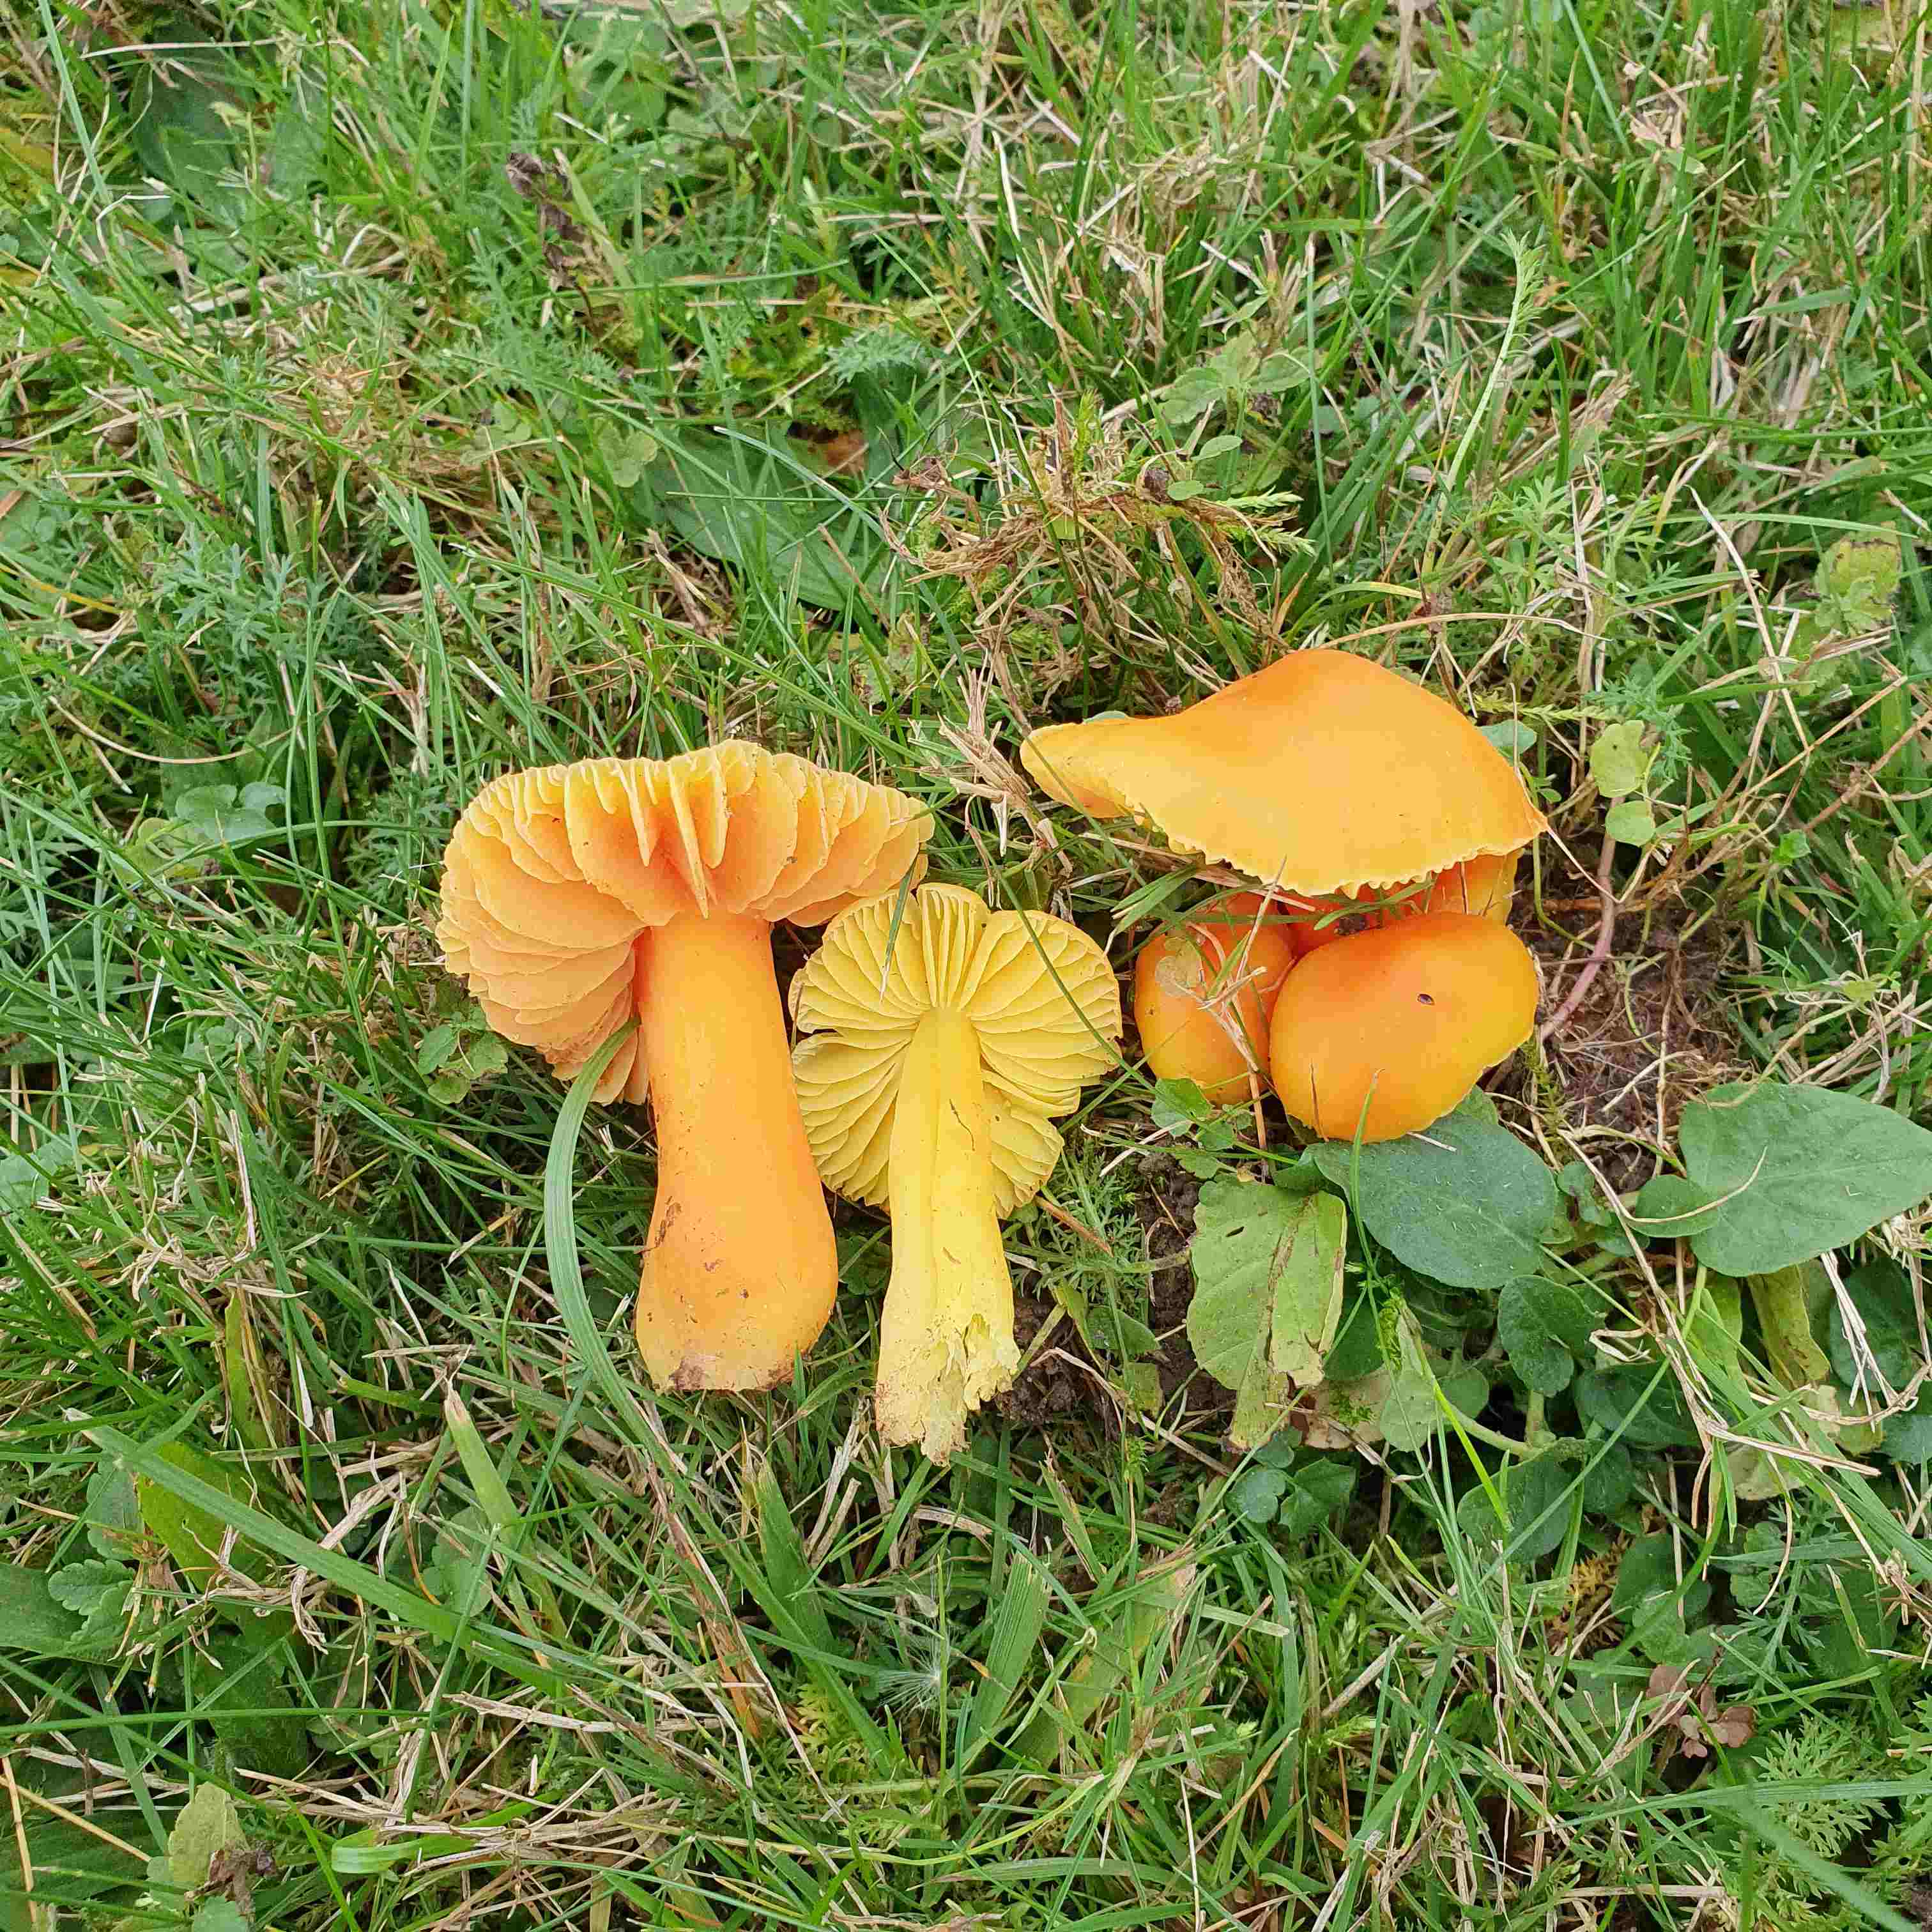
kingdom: Fungi
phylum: Basidiomycota
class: Agaricomycetes
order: Agaricales
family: Hygrophoraceae
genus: Hygrocybe
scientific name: Hygrocybe quieta
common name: tæge-vokshat
